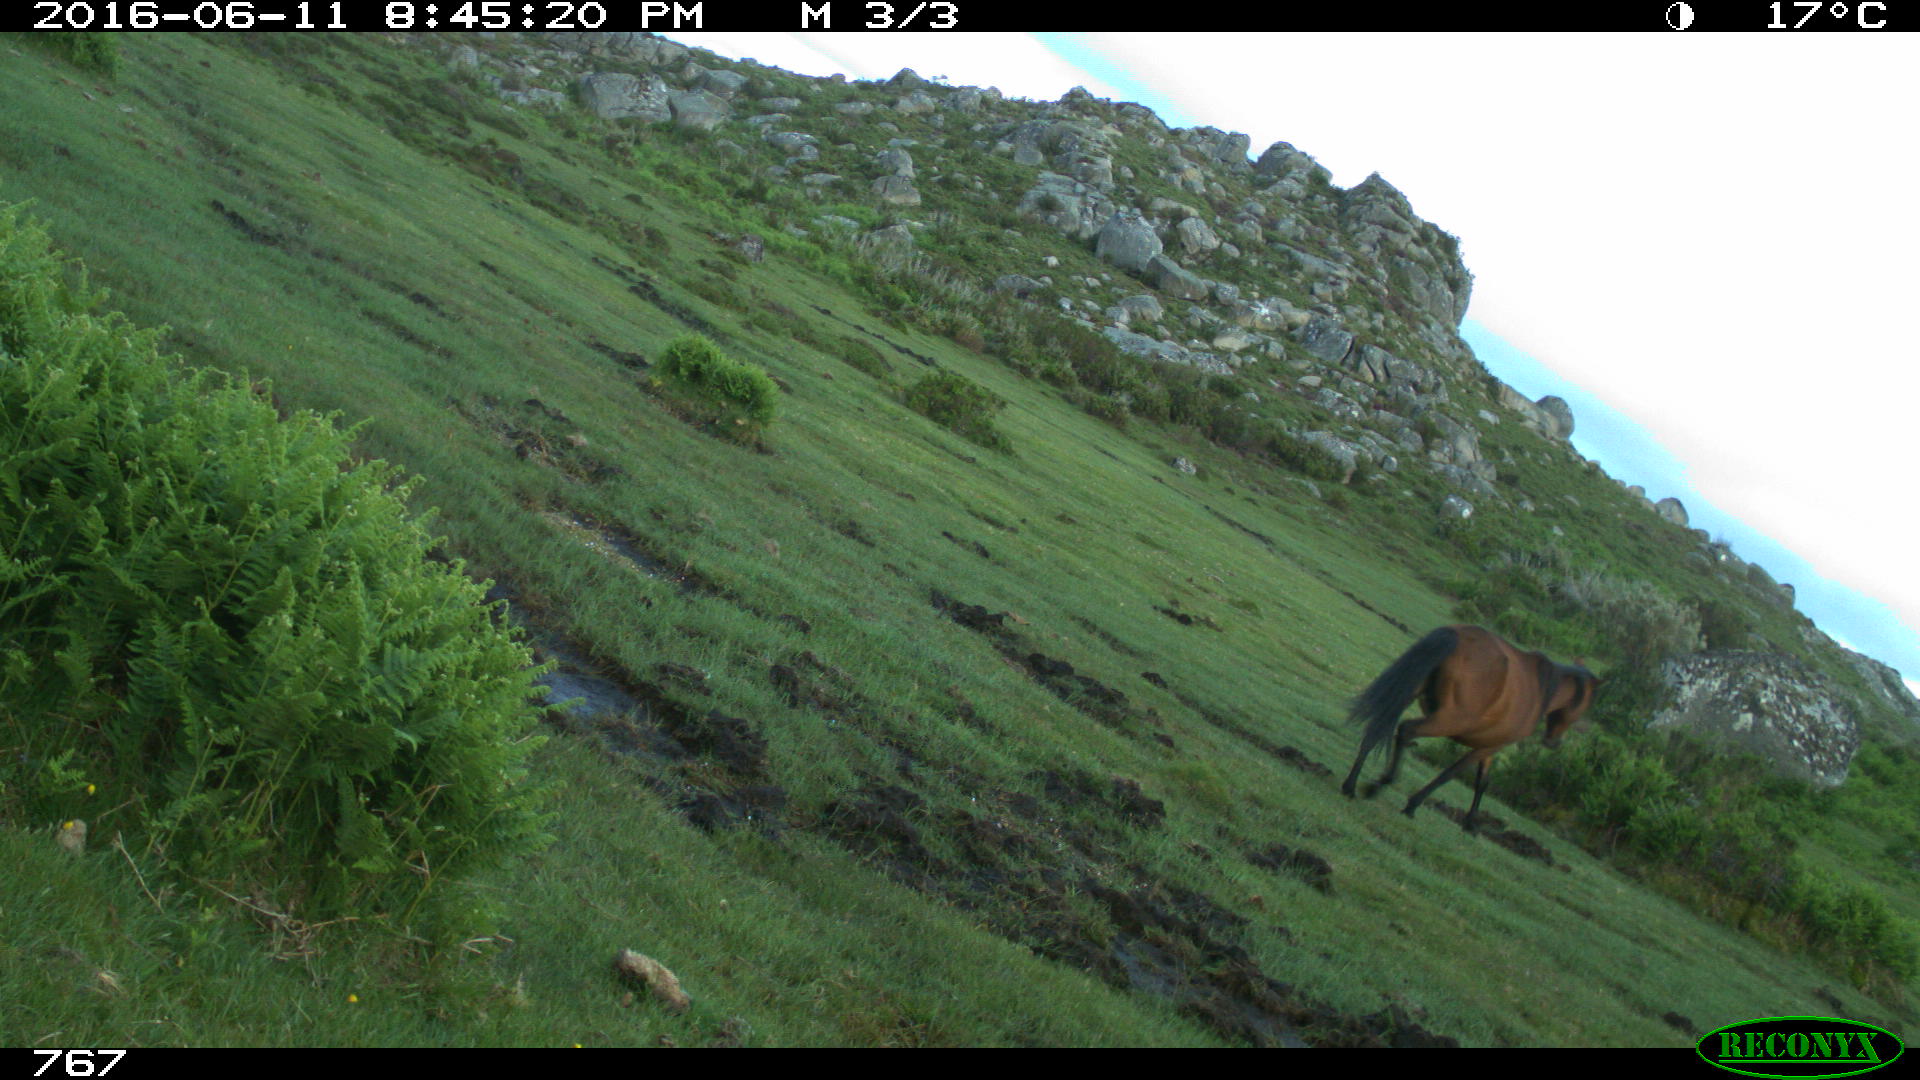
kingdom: Animalia
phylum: Chordata
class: Mammalia
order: Perissodactyla
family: Equidae
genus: Equus
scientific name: Equus caballus
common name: Horse
